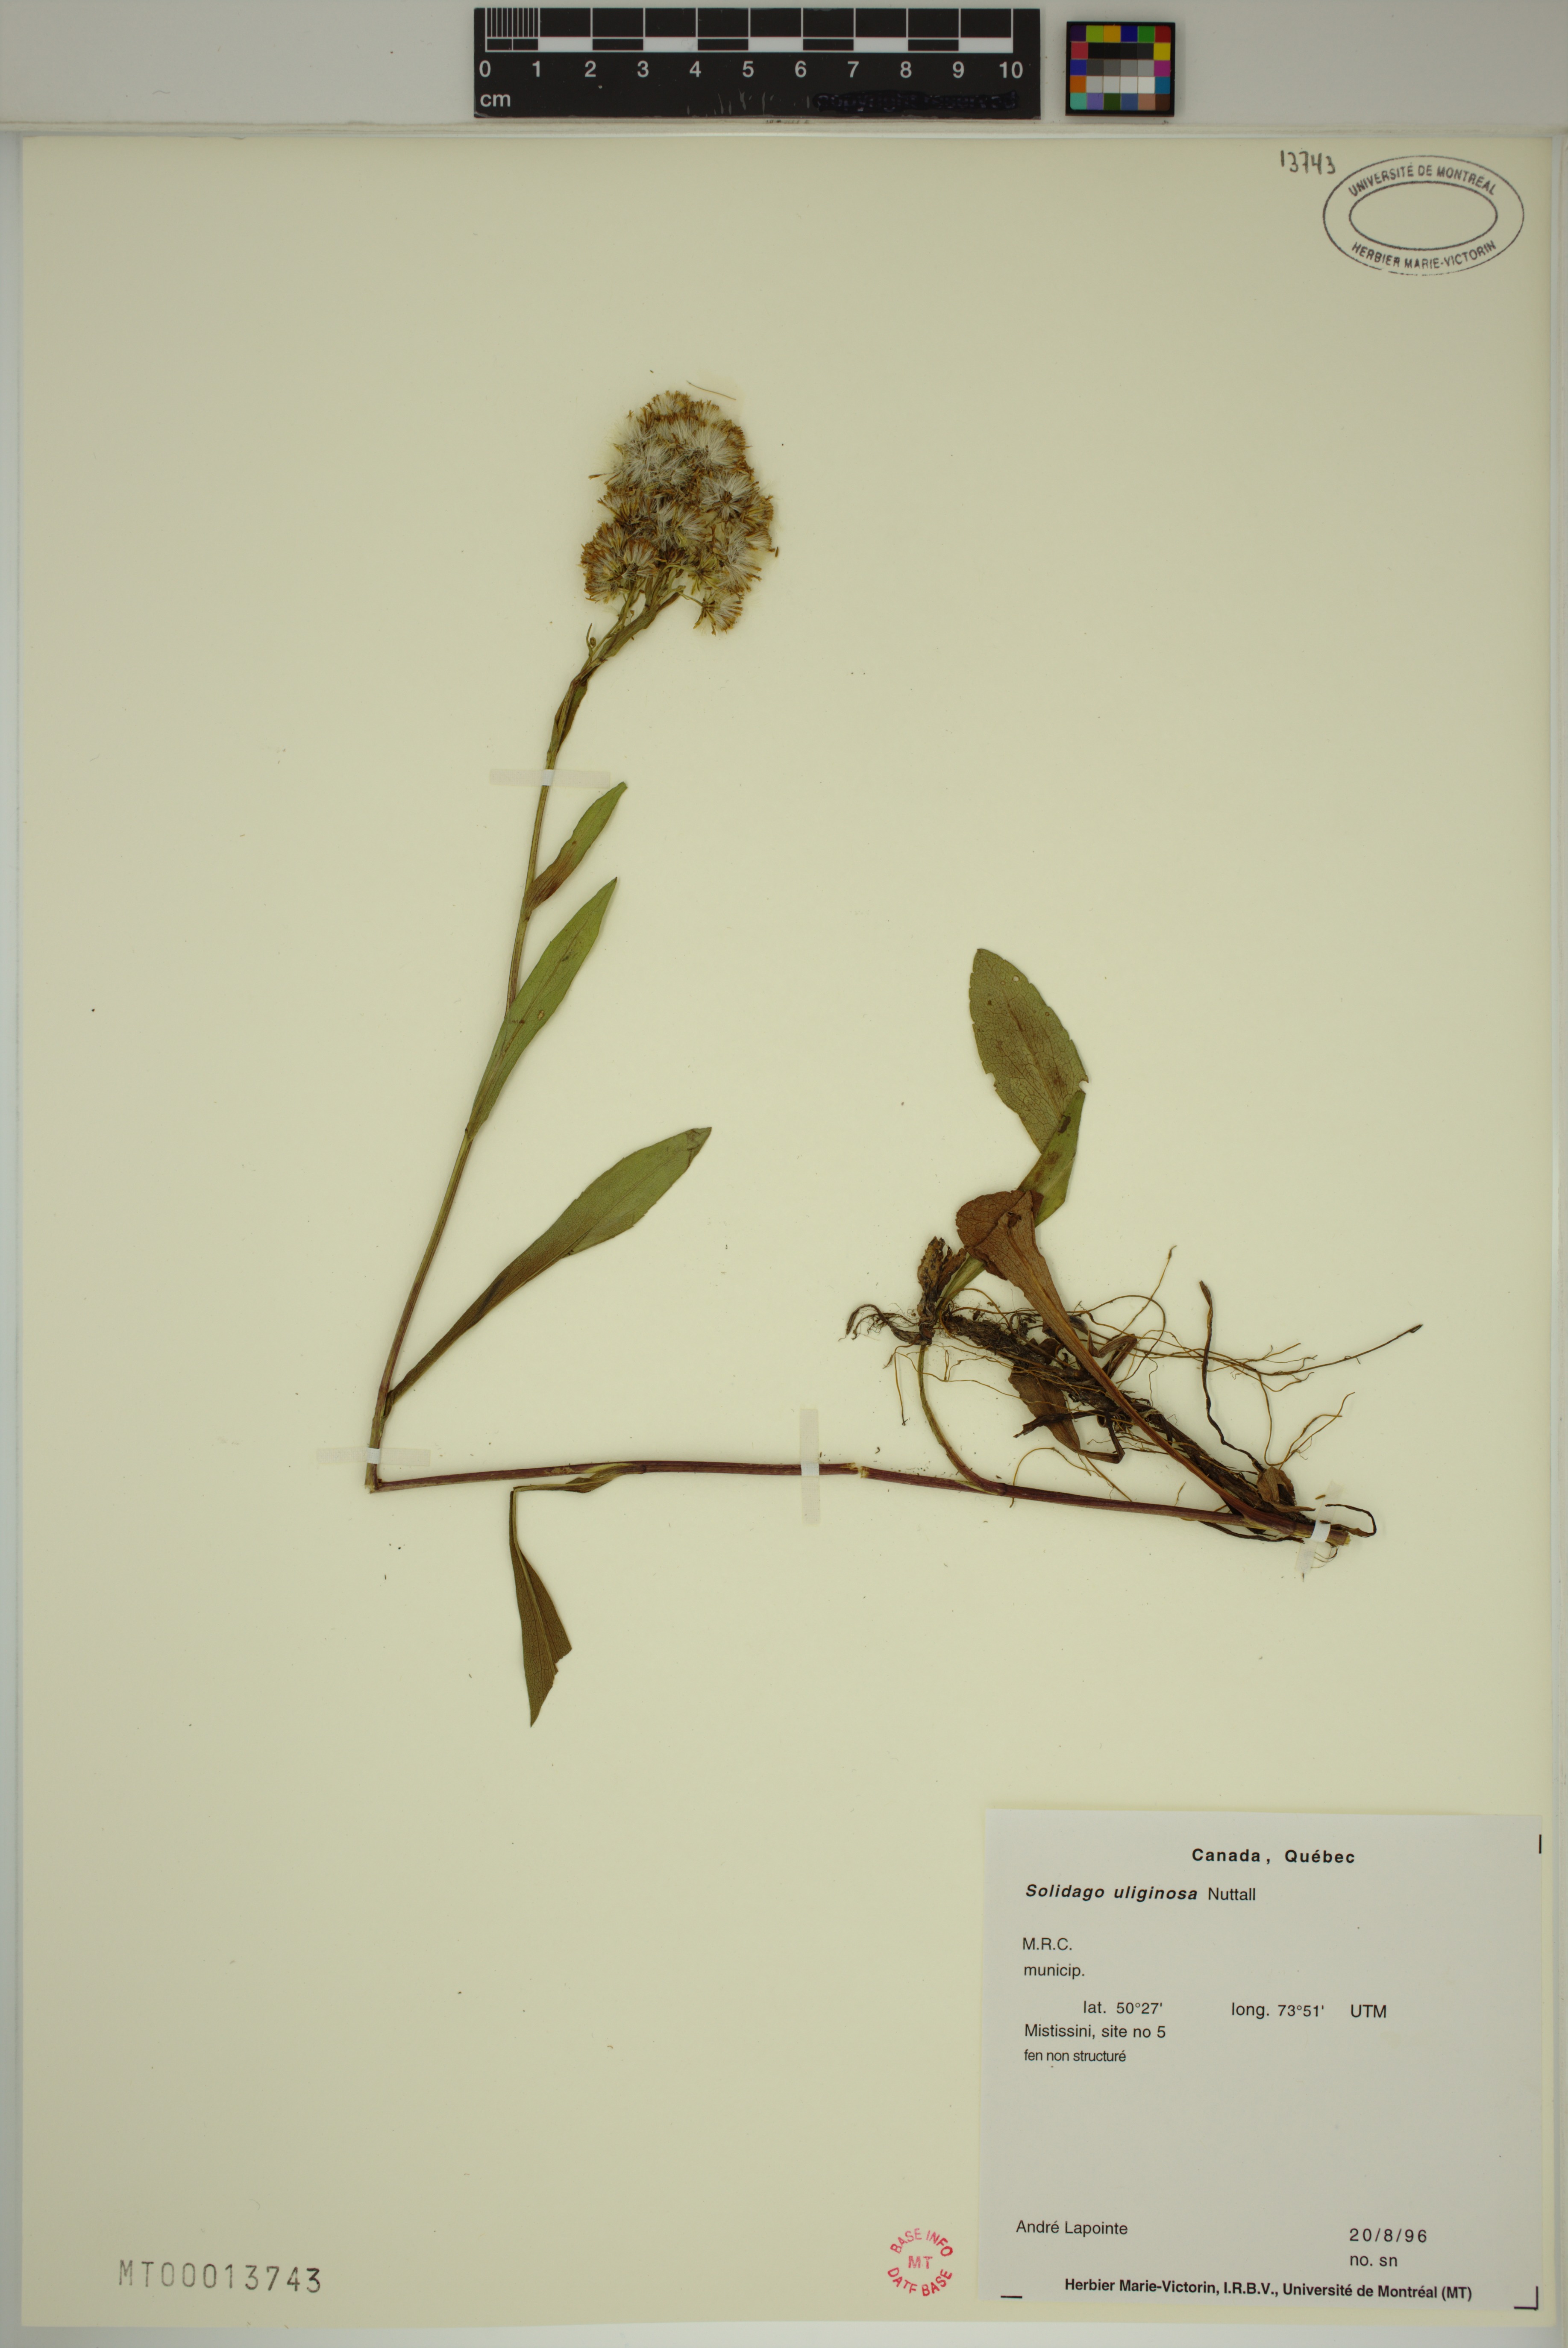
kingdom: Plantae
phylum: Tracheophyta
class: Magnoliopsida
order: Asterales
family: Asteraceae
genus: Solidago
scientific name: Solidago uliginosa
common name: Bog goldenrod
